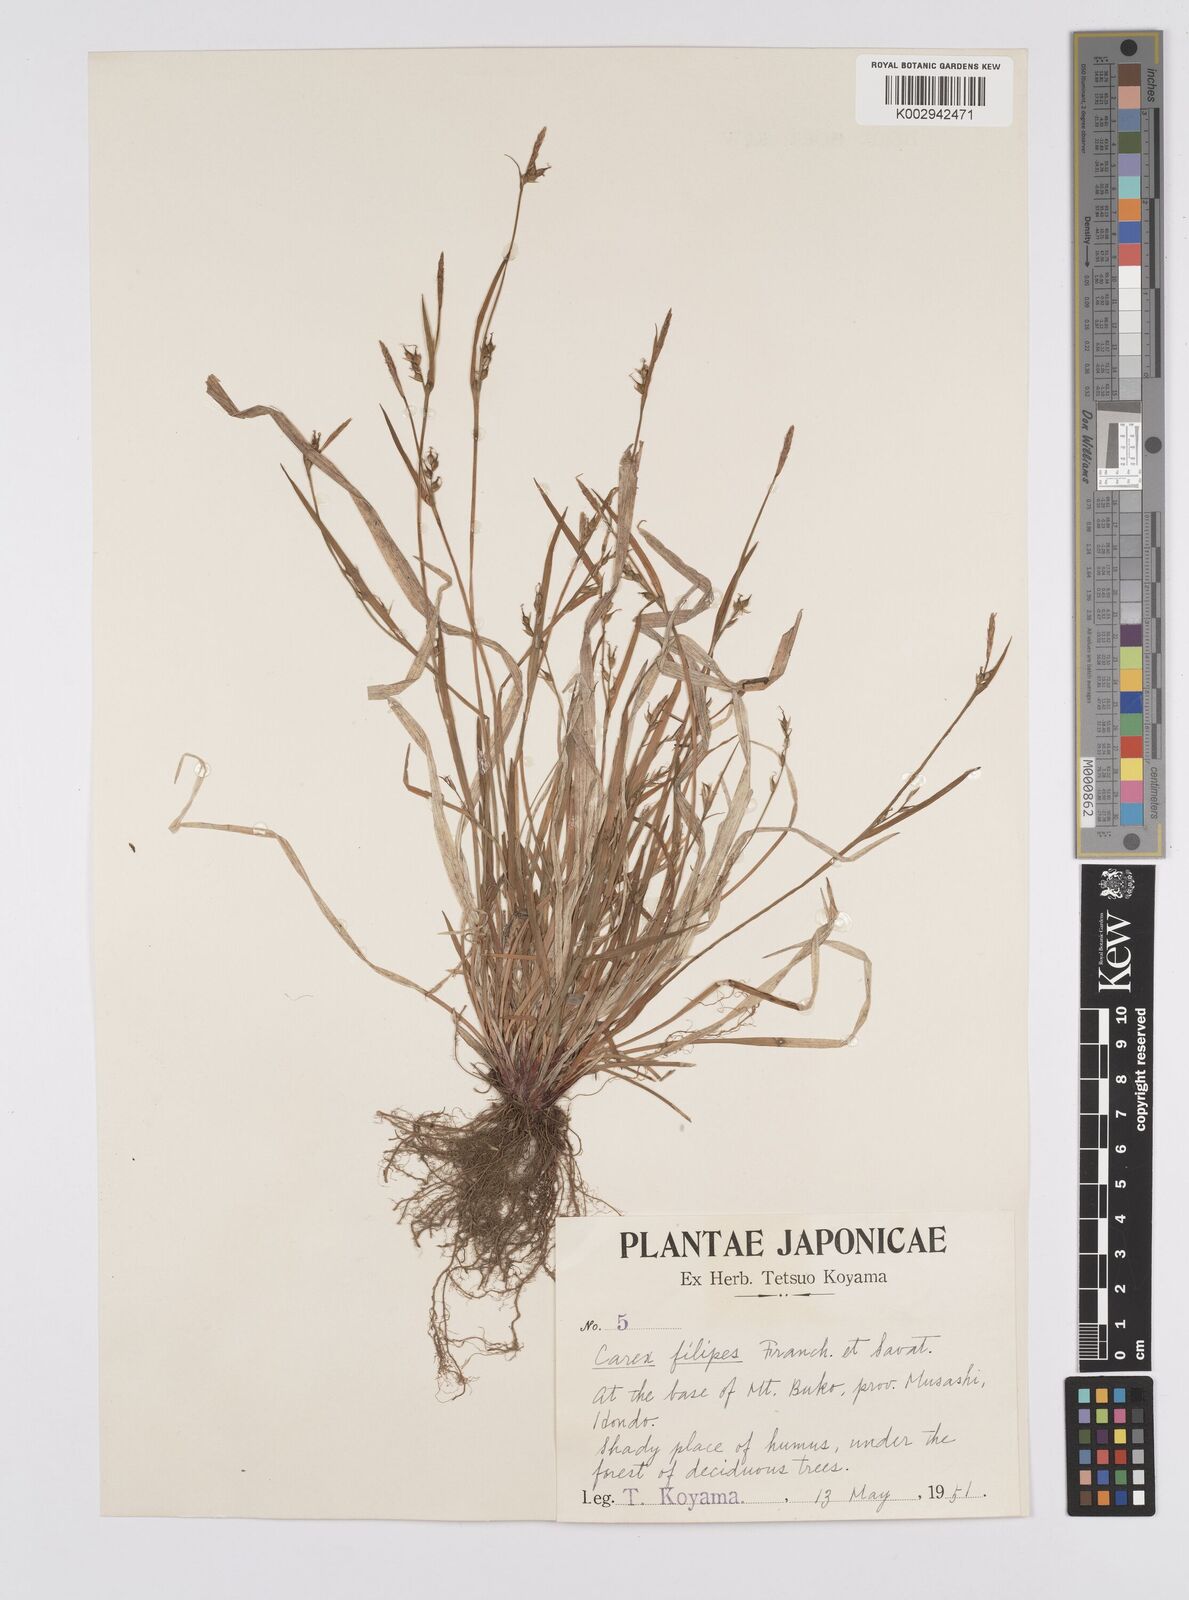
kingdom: Plantae
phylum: Tracheophyta
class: Liliopsida
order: Poales
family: Cyperaceae
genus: Carex
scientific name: Carex filipes
